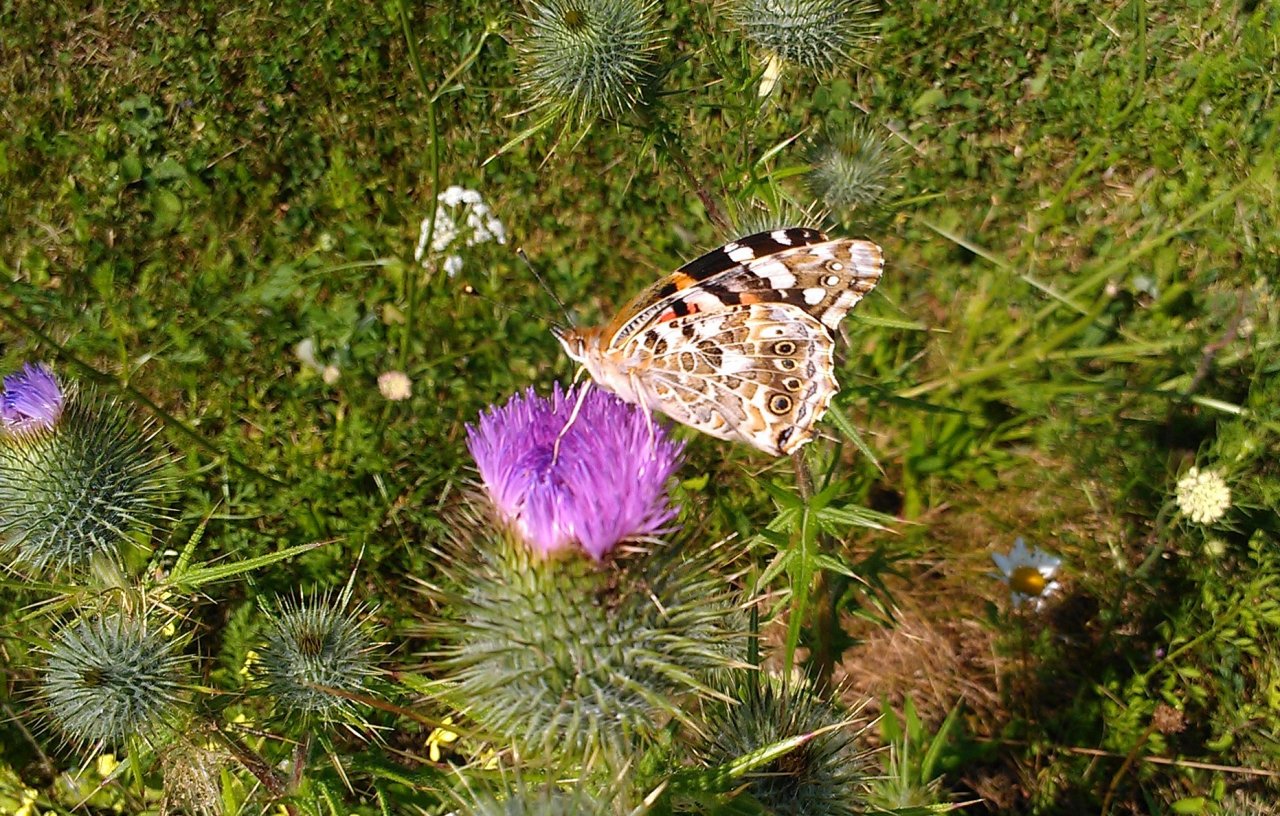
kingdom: Animalia
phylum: Arthropoda
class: Insecta
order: Lepidoptera
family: Nymphalidae
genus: Vanessa
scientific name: Vanessa cardui
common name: Painted Lady
